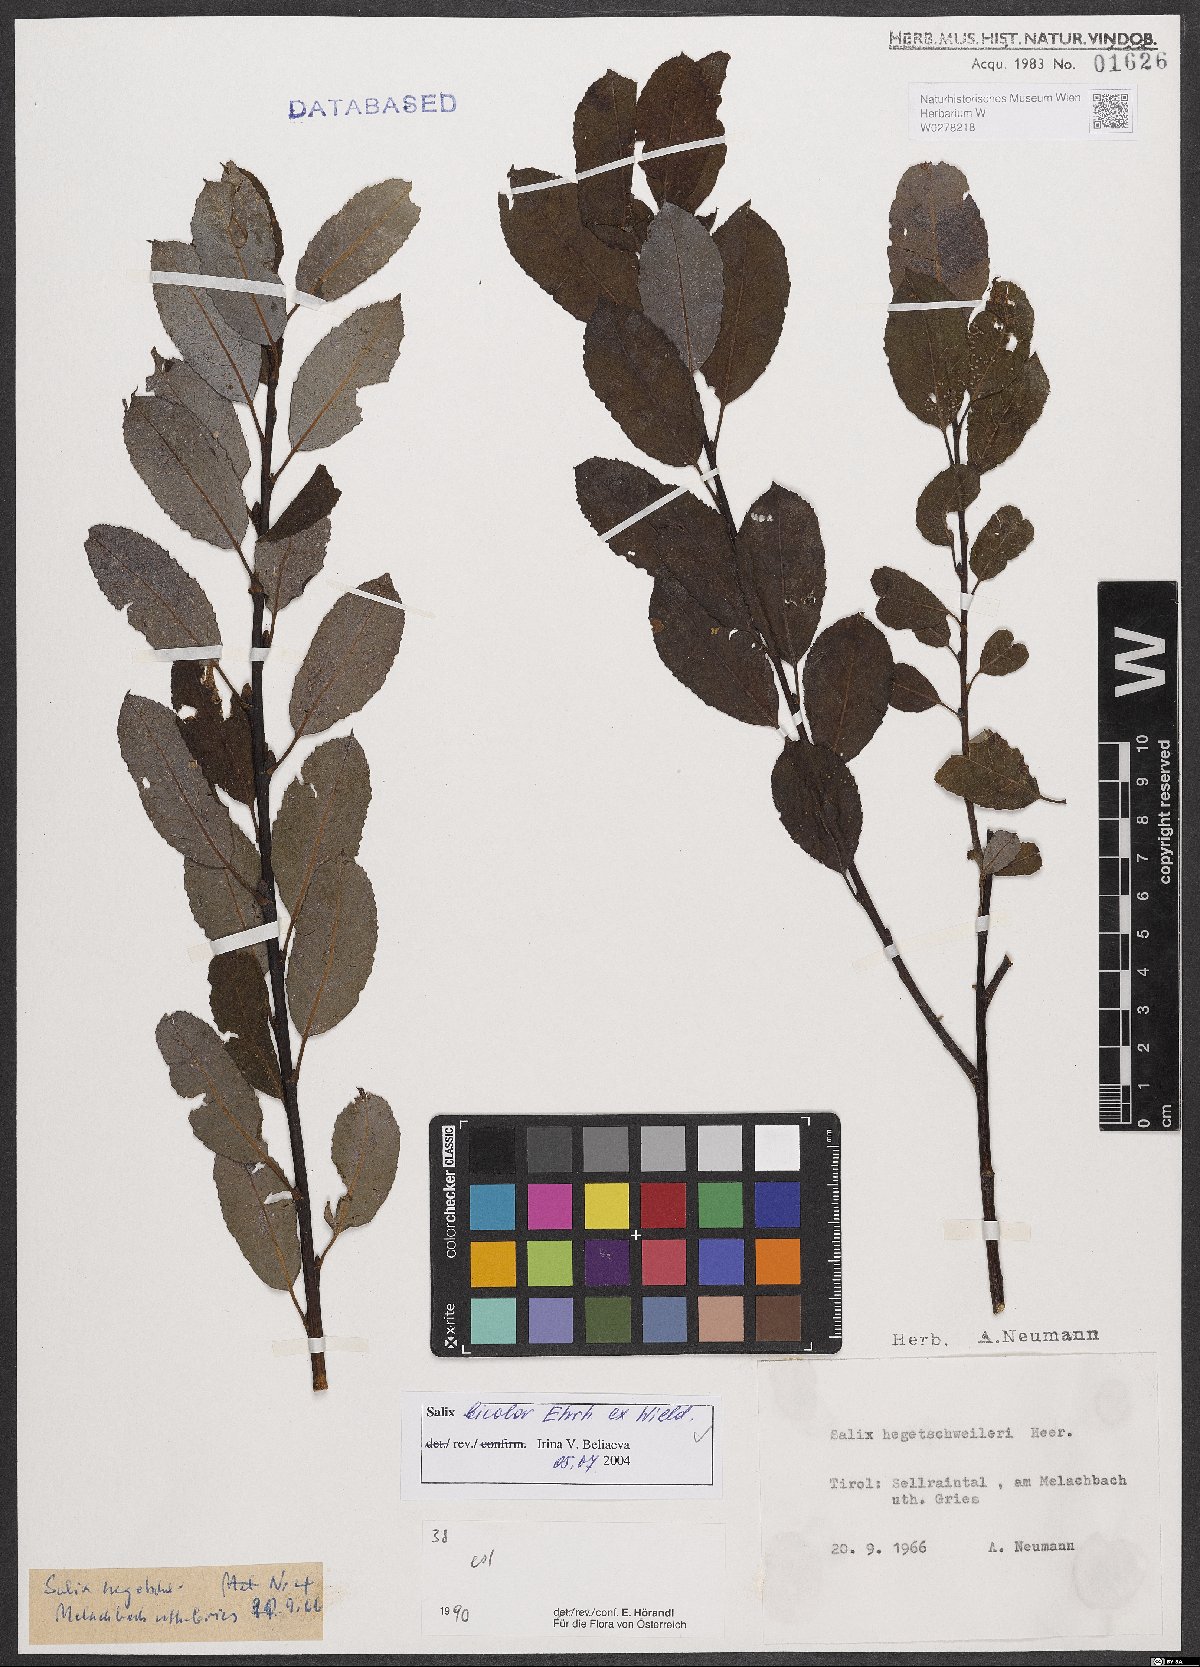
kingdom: Plantae
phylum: Tracheophyta
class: Magnoliopsida
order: Malpighiales
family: Salicaceae
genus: Salix
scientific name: Salix bicolor
